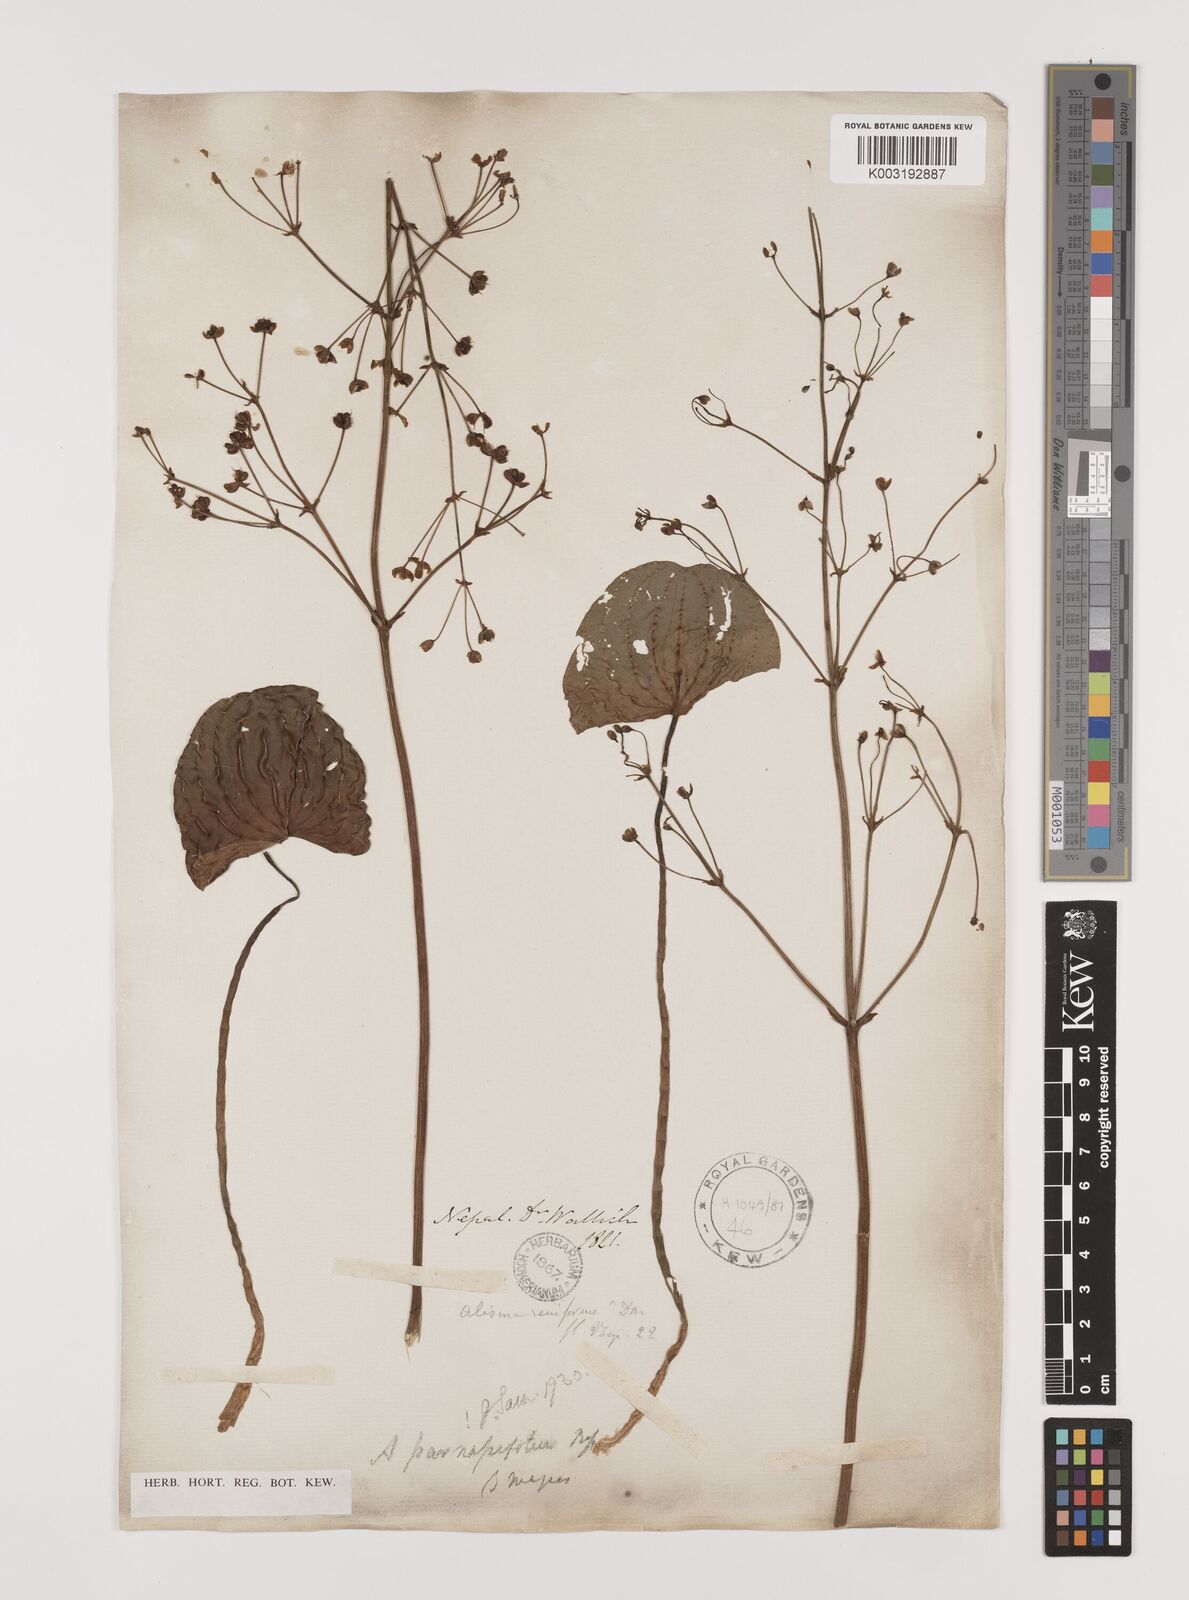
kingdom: Plantae
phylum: Tracheophyta
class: Liliopsida
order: Alismatales
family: Alismataceae
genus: Caldesia
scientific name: Caldesia parnassifolia
